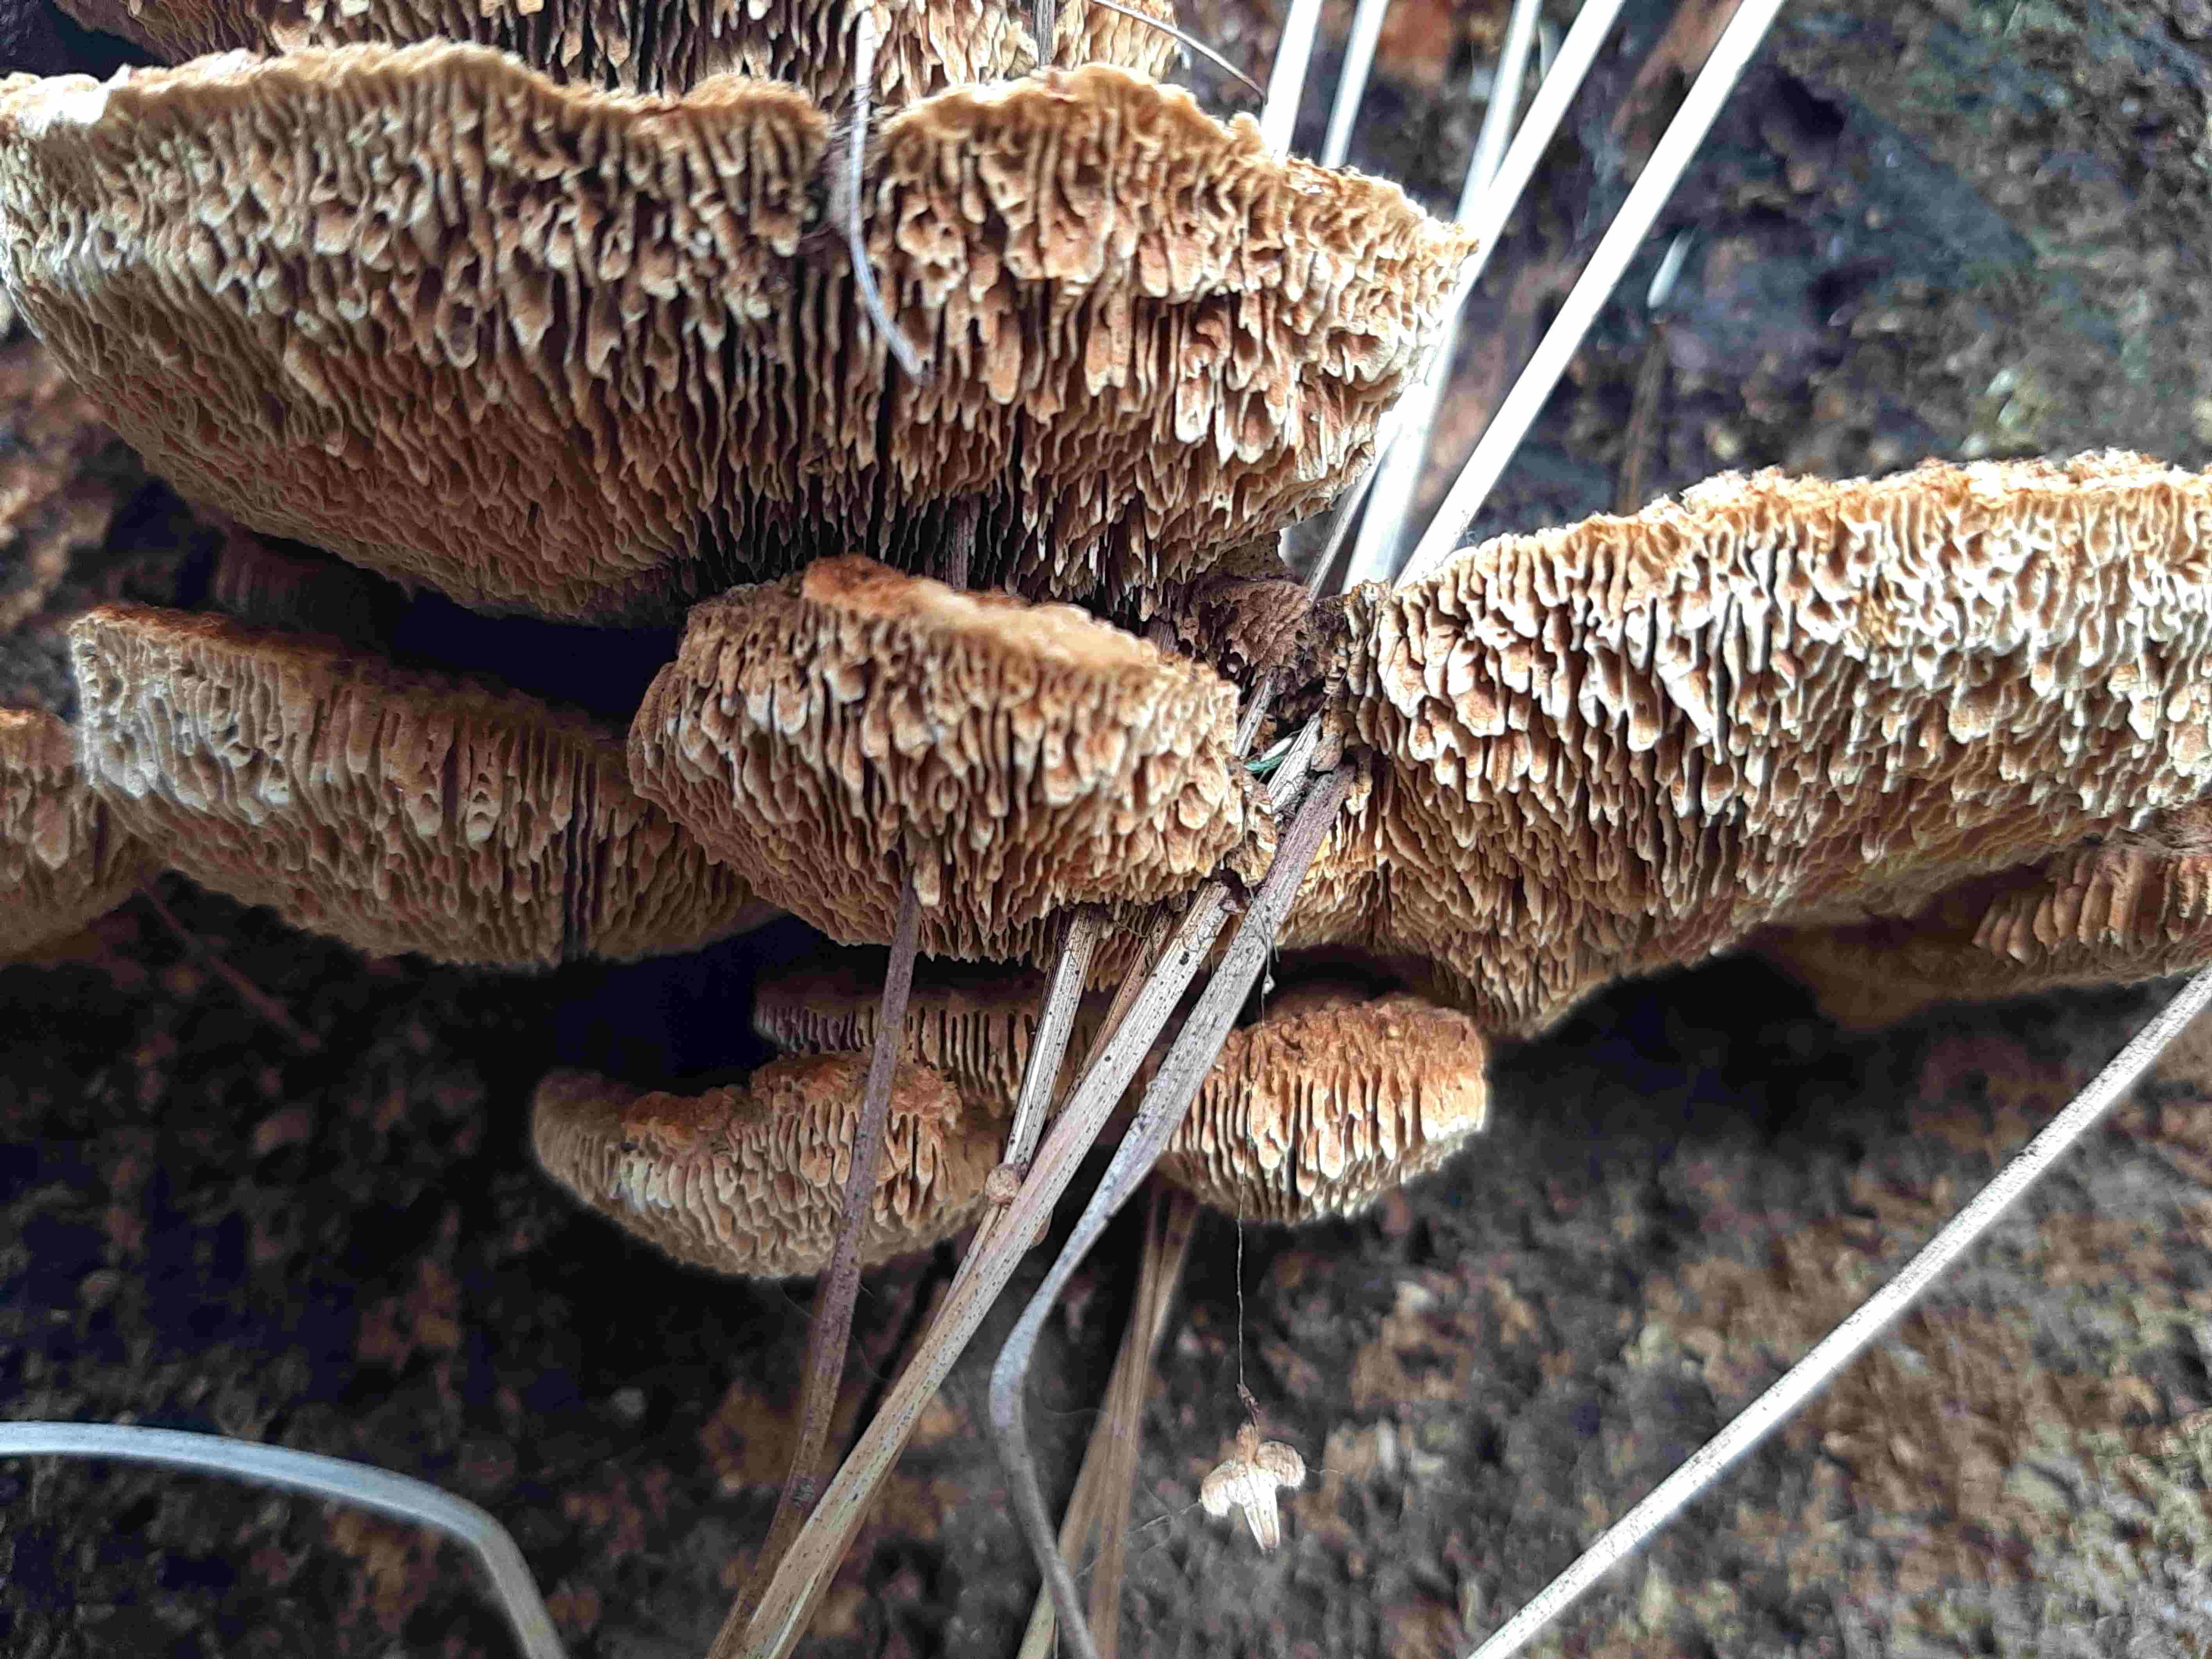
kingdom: Fungi
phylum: Basidiomycota
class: Agaricomycetes
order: Gloeophyllales
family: Gloeophyllaceae
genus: Gloeophyllum
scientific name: Gloeophyllum sepiarium
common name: fyrre-korkhat
